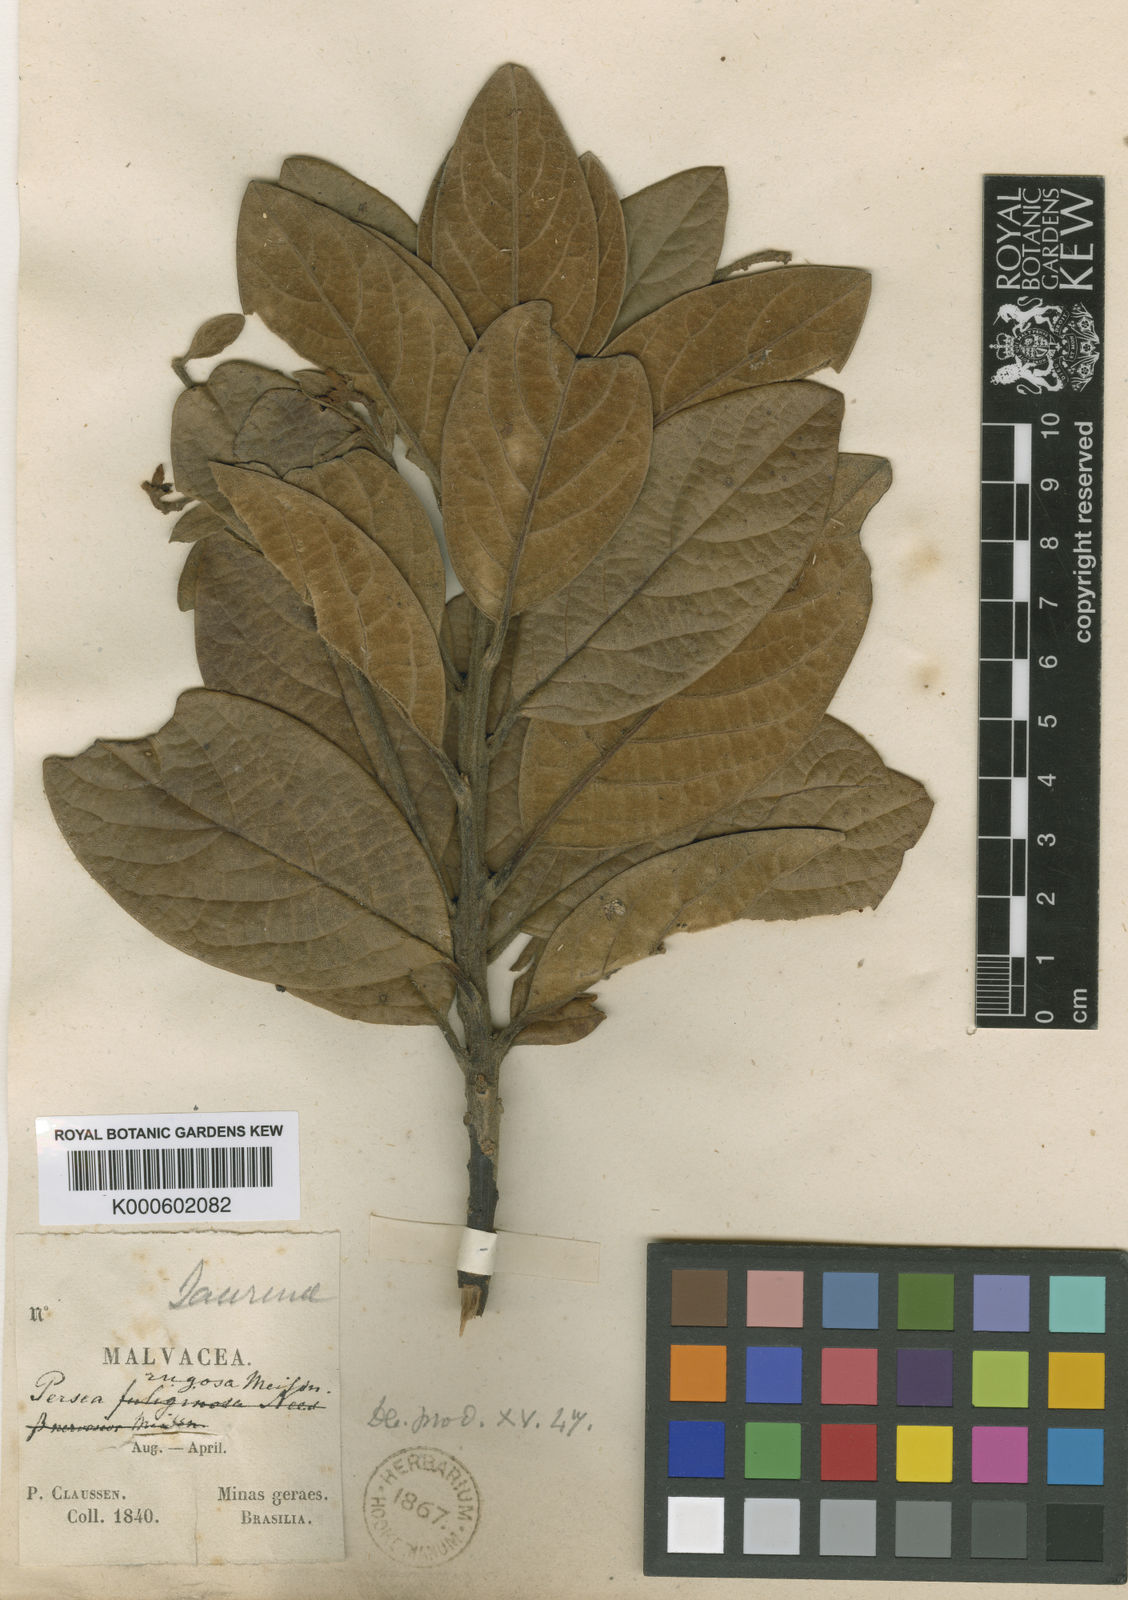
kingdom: Plantae
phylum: Tracheophyta
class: Magnoliopsida
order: Laurales
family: Lauraceae
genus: Persea
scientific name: Persea pedunculosa
